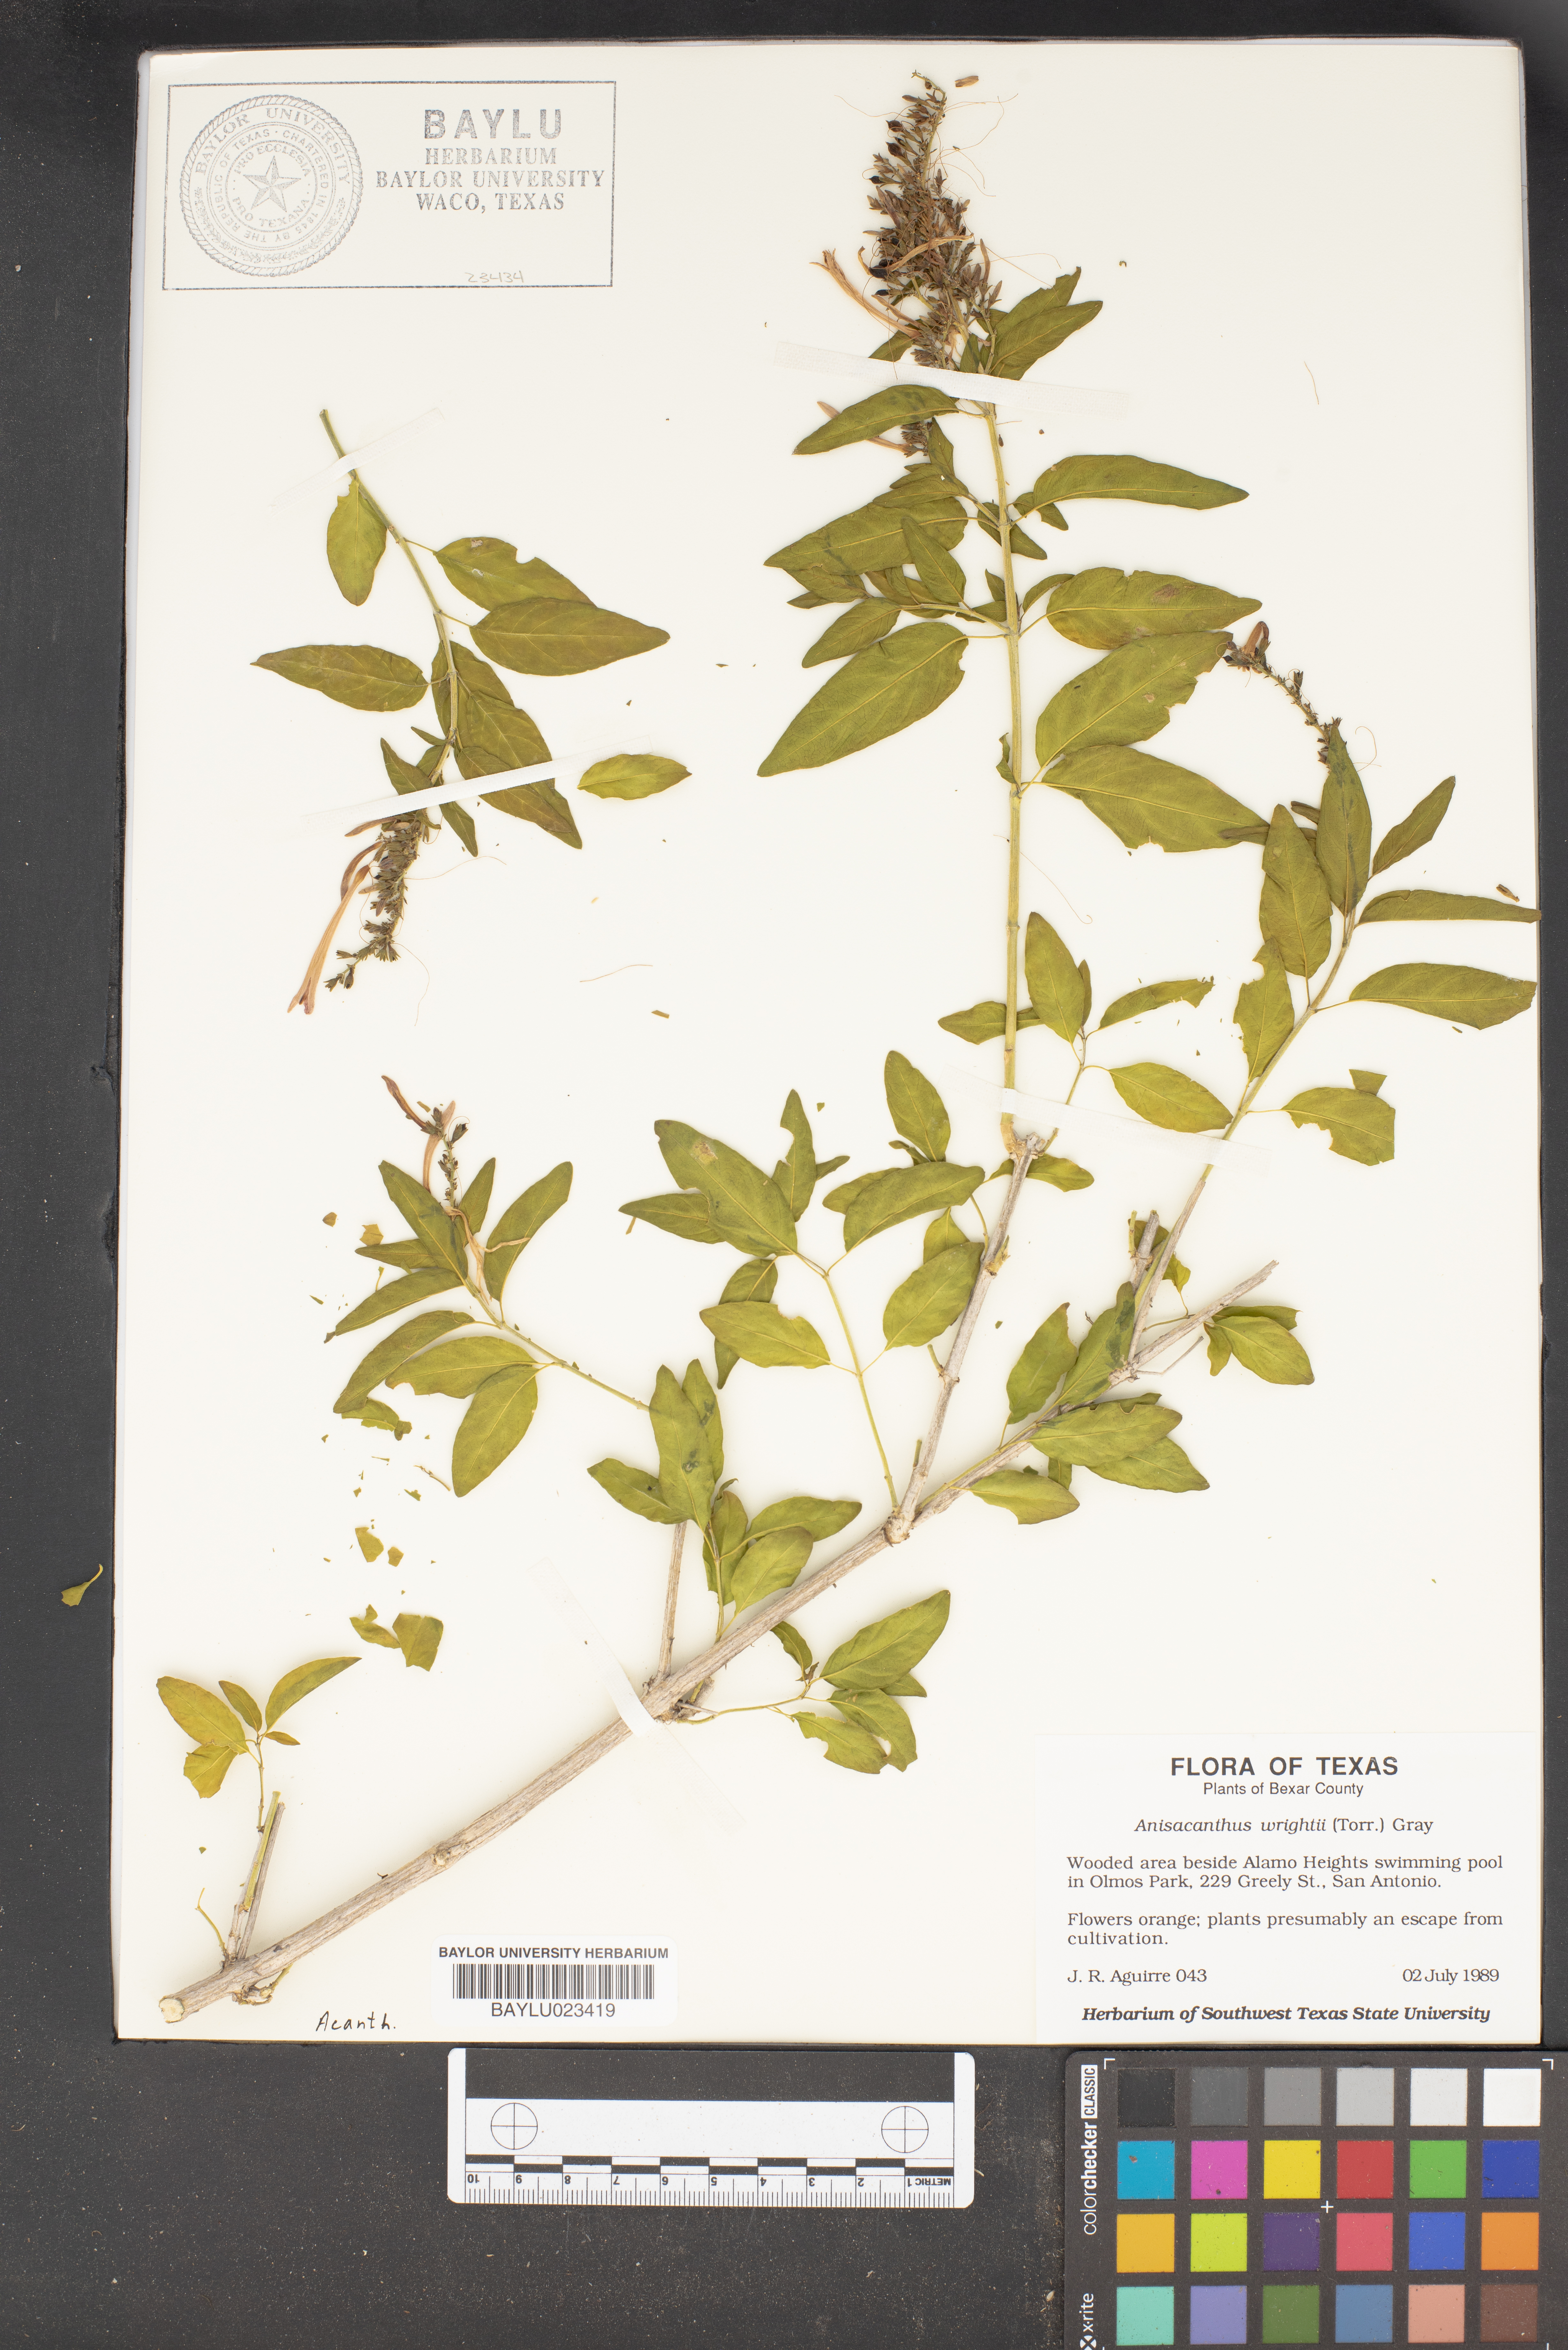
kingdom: Plantae
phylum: Tracheophyta
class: Magnoliopsida
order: Lamiales
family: Acanthaceae
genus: Anisacanthus
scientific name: Anisacanthus quadrifidus
